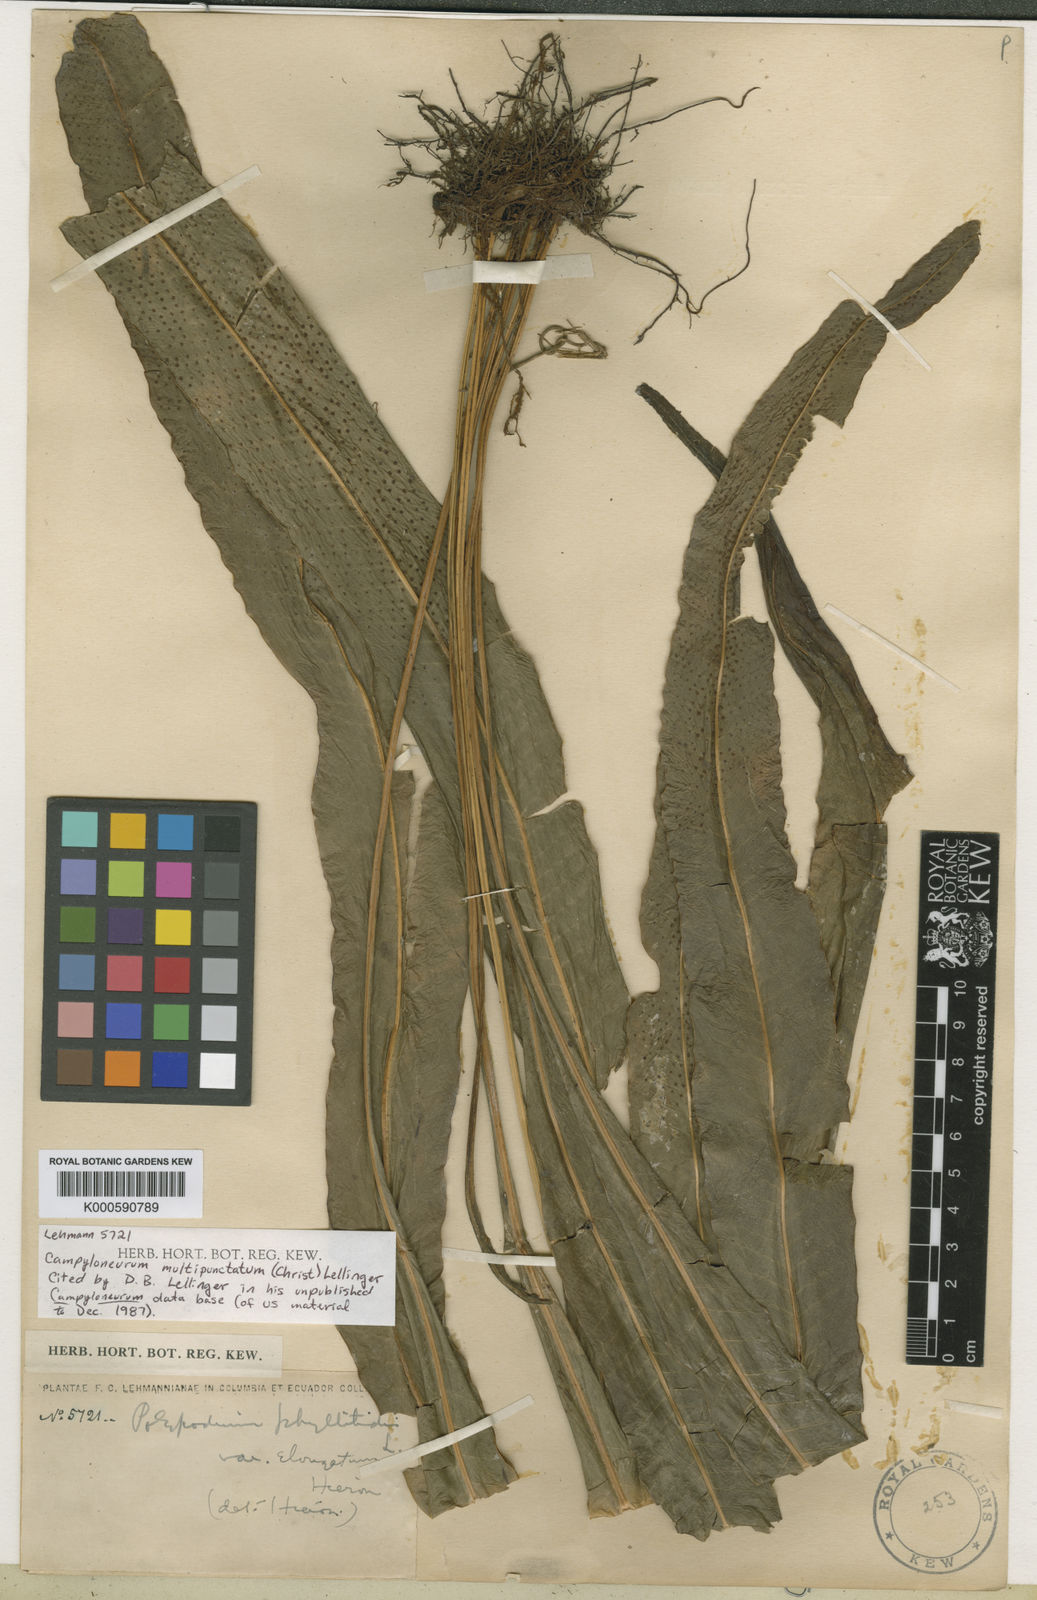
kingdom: Plantae
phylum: Tracheophyta
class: Polypodiopsida
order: Polypodiales
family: Polypodiaceae
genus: Campyloneurum
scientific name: Campyloneurum xalapense
